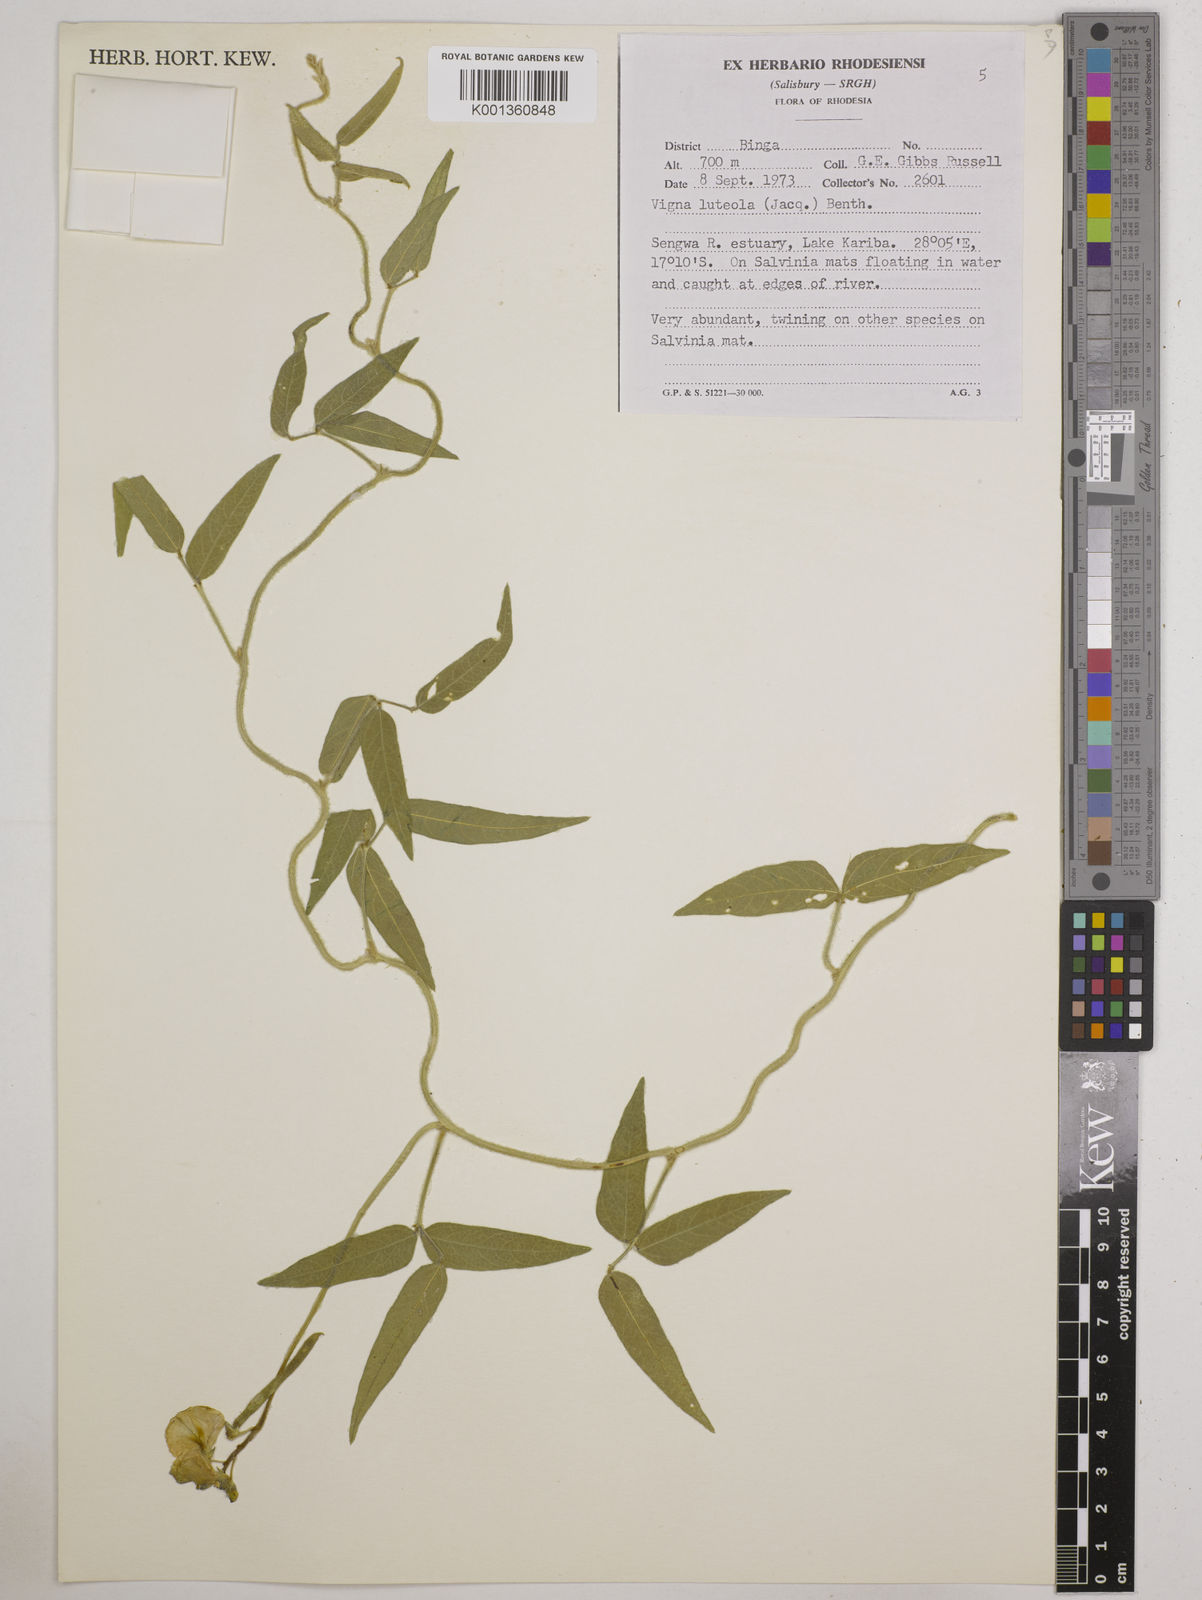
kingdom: Plantae
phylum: Tracheophyta
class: Magnoliopsida
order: Fabales
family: Fabaceae
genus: Vigna
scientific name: Vigna luteola
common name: Hairypod cowpea
